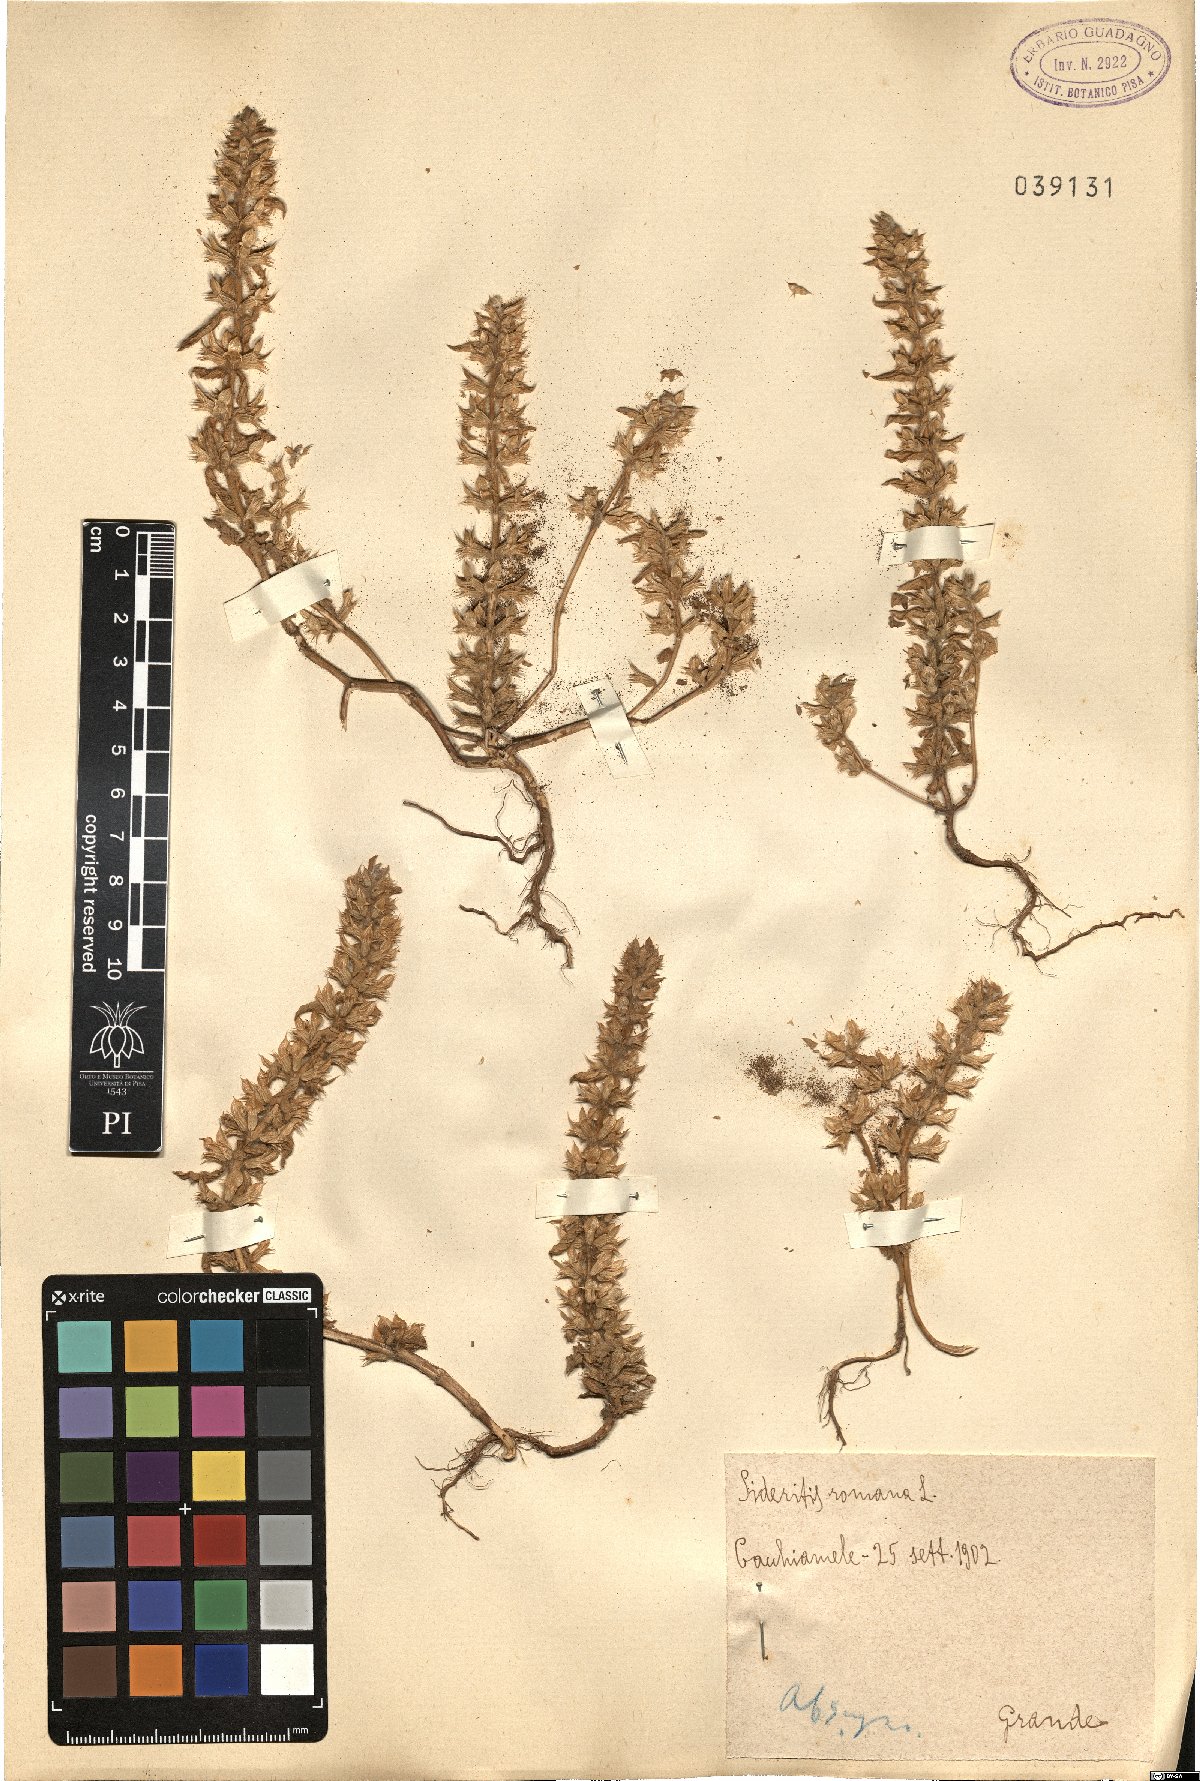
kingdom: Plantae
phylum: Tracheophyta
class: Magnoliopsida
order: Lamiales
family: Lamiaceae
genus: Sideritis
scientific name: Sideritis romana
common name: Simplebeak ironwort
